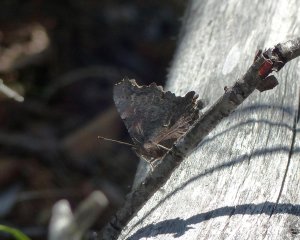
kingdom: Animalia
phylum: Arthropoda
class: Insecta
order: Lepidoptera
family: Nymphalidae
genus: Polygonia
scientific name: Polygonia faunus
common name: Green Comma
